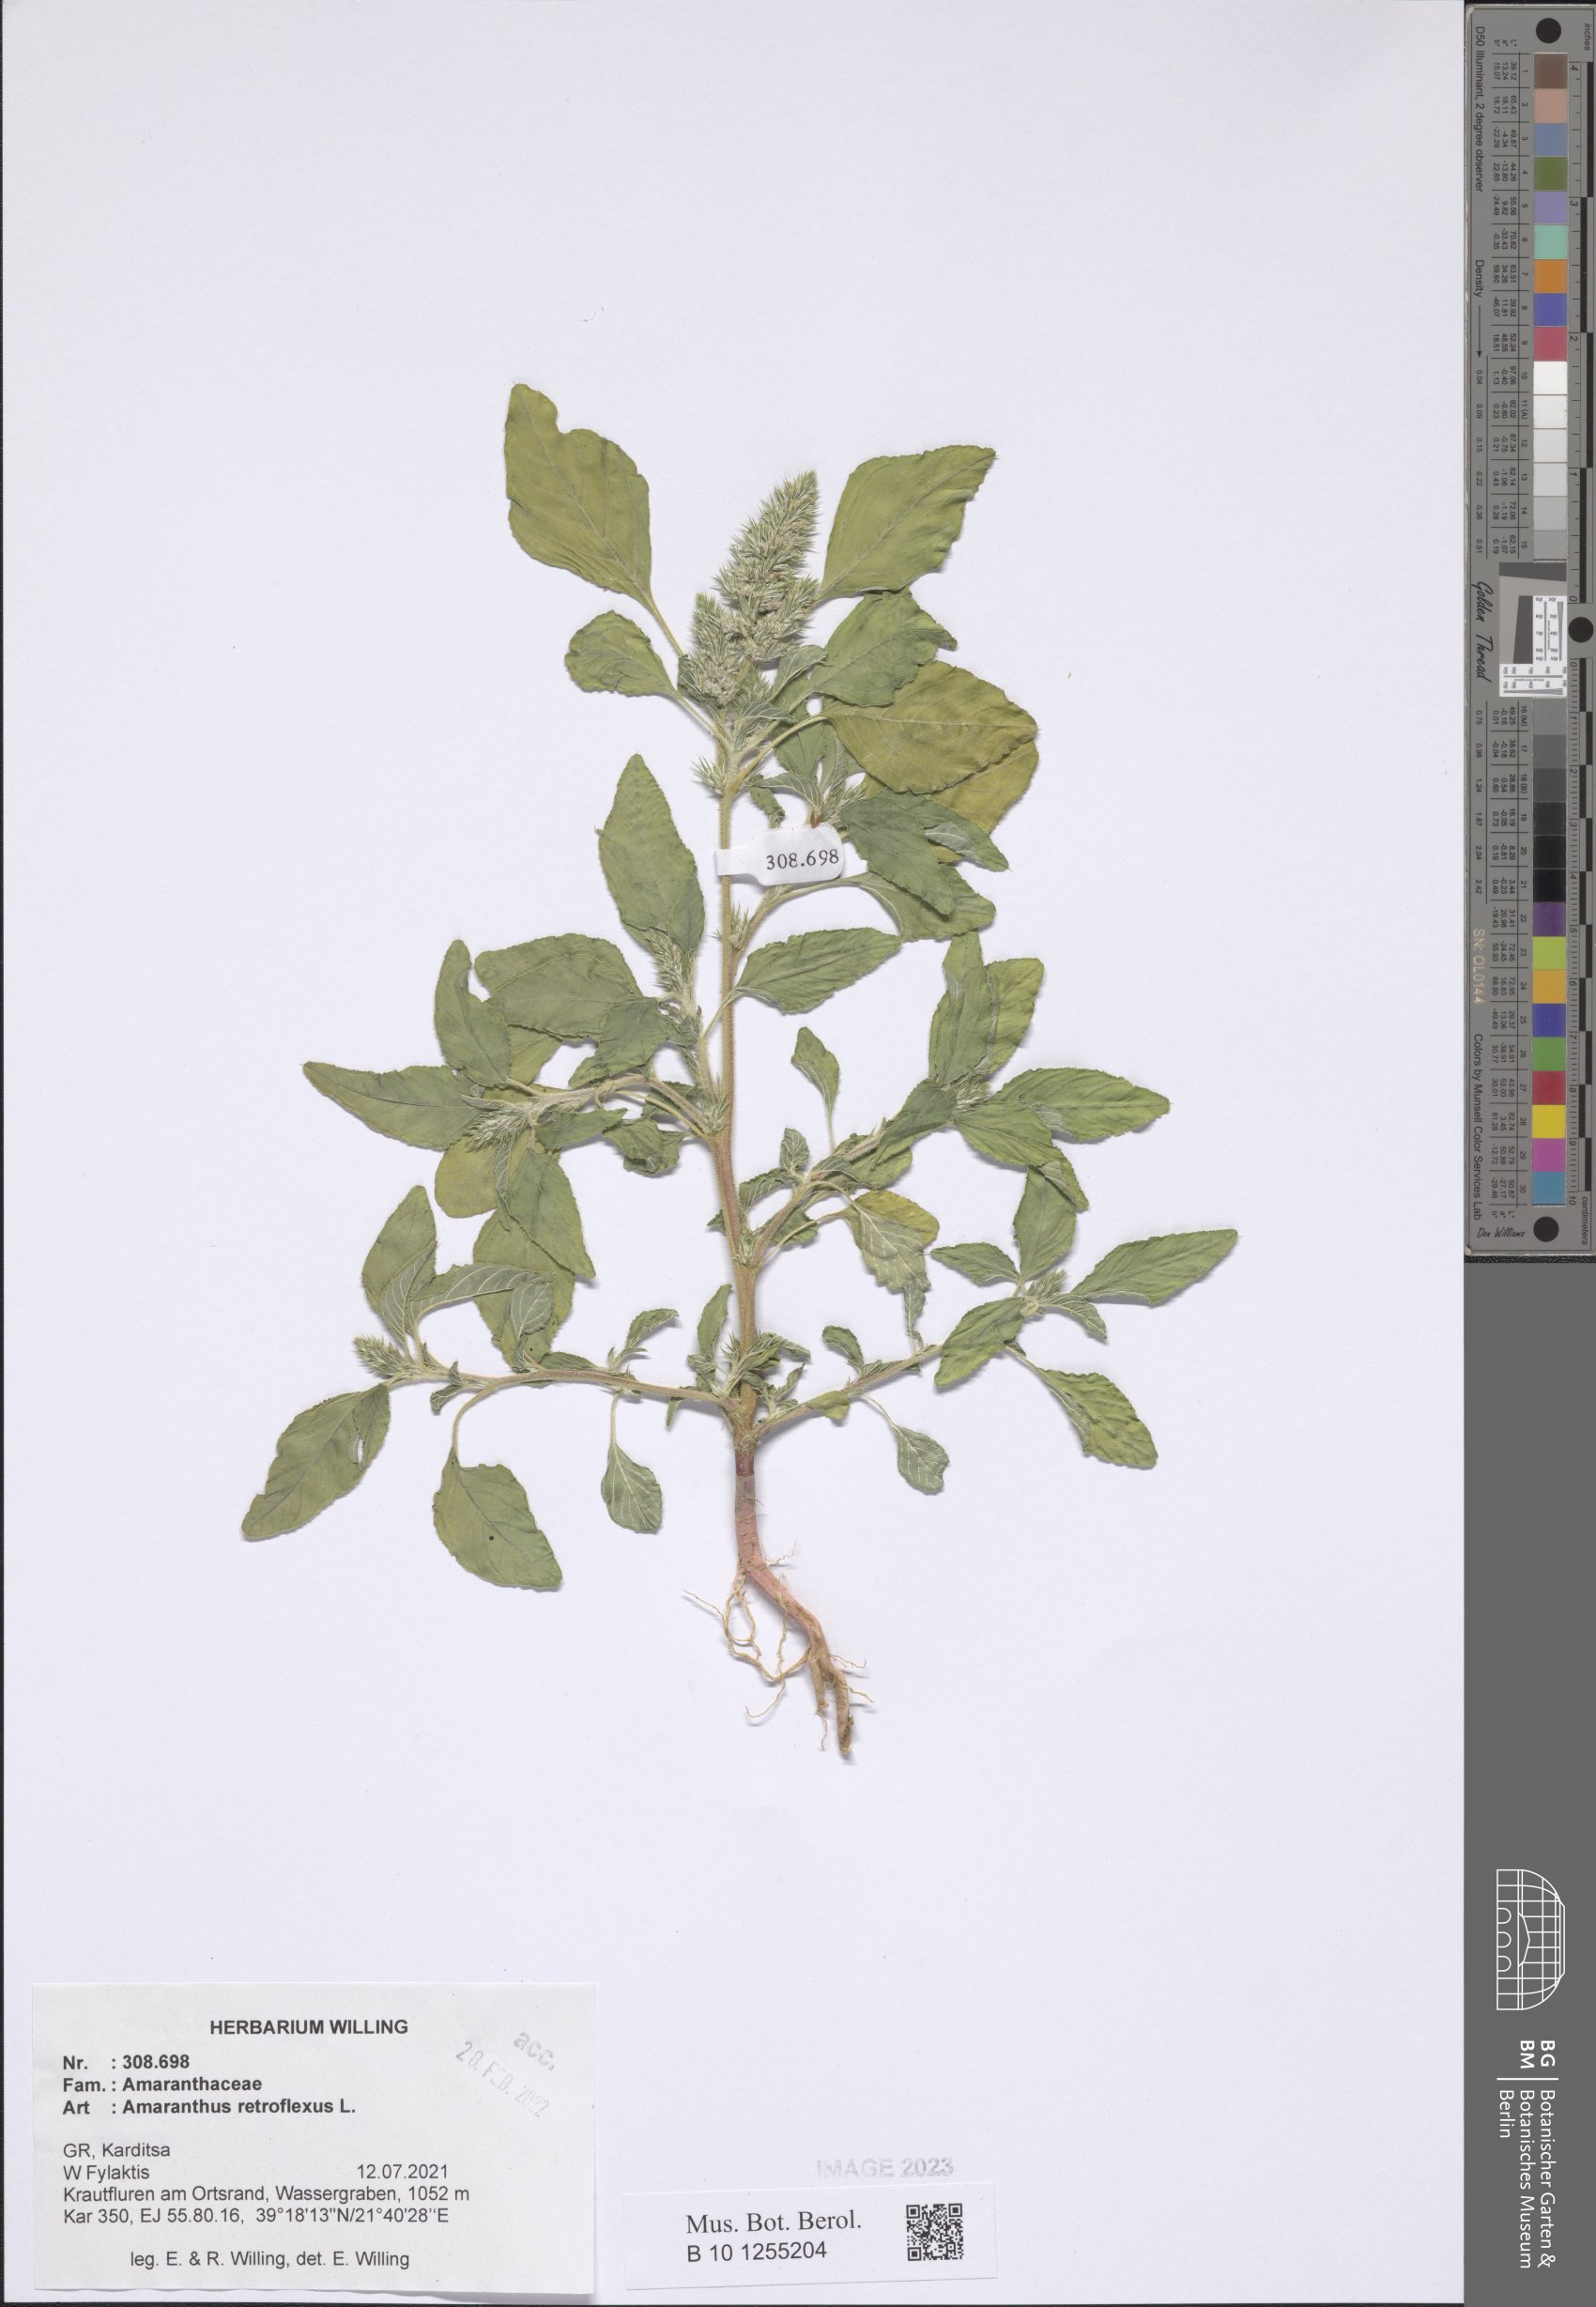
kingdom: Plantae
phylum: Tracheophyta
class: Magnoliopsida
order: Caryophyllales
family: Amaranthaceae
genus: Amaranthus
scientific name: Amaranthus retroflexus
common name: Redroot amaranth
